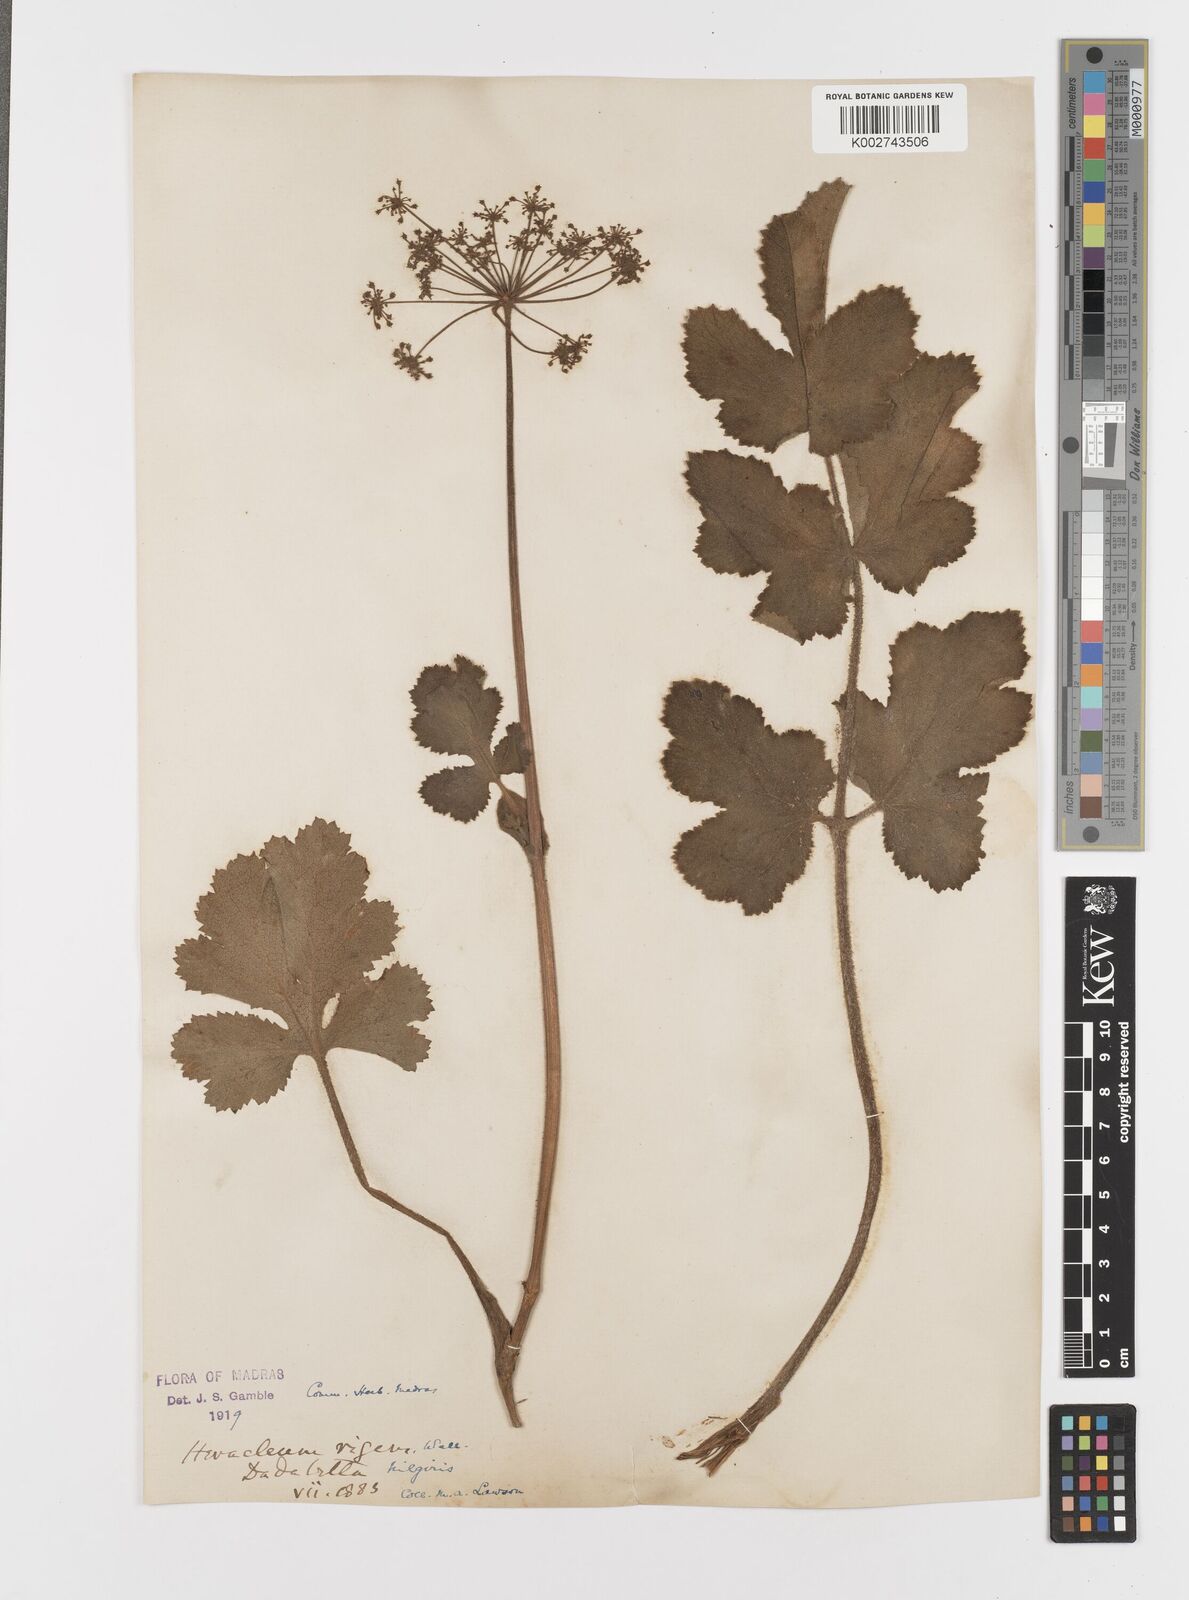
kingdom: Plantae
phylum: Tracheophyta
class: Magnoliopsida
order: Apiales
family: Apiaceae
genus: Tetrataenium
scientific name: Tetrataenium rigens
